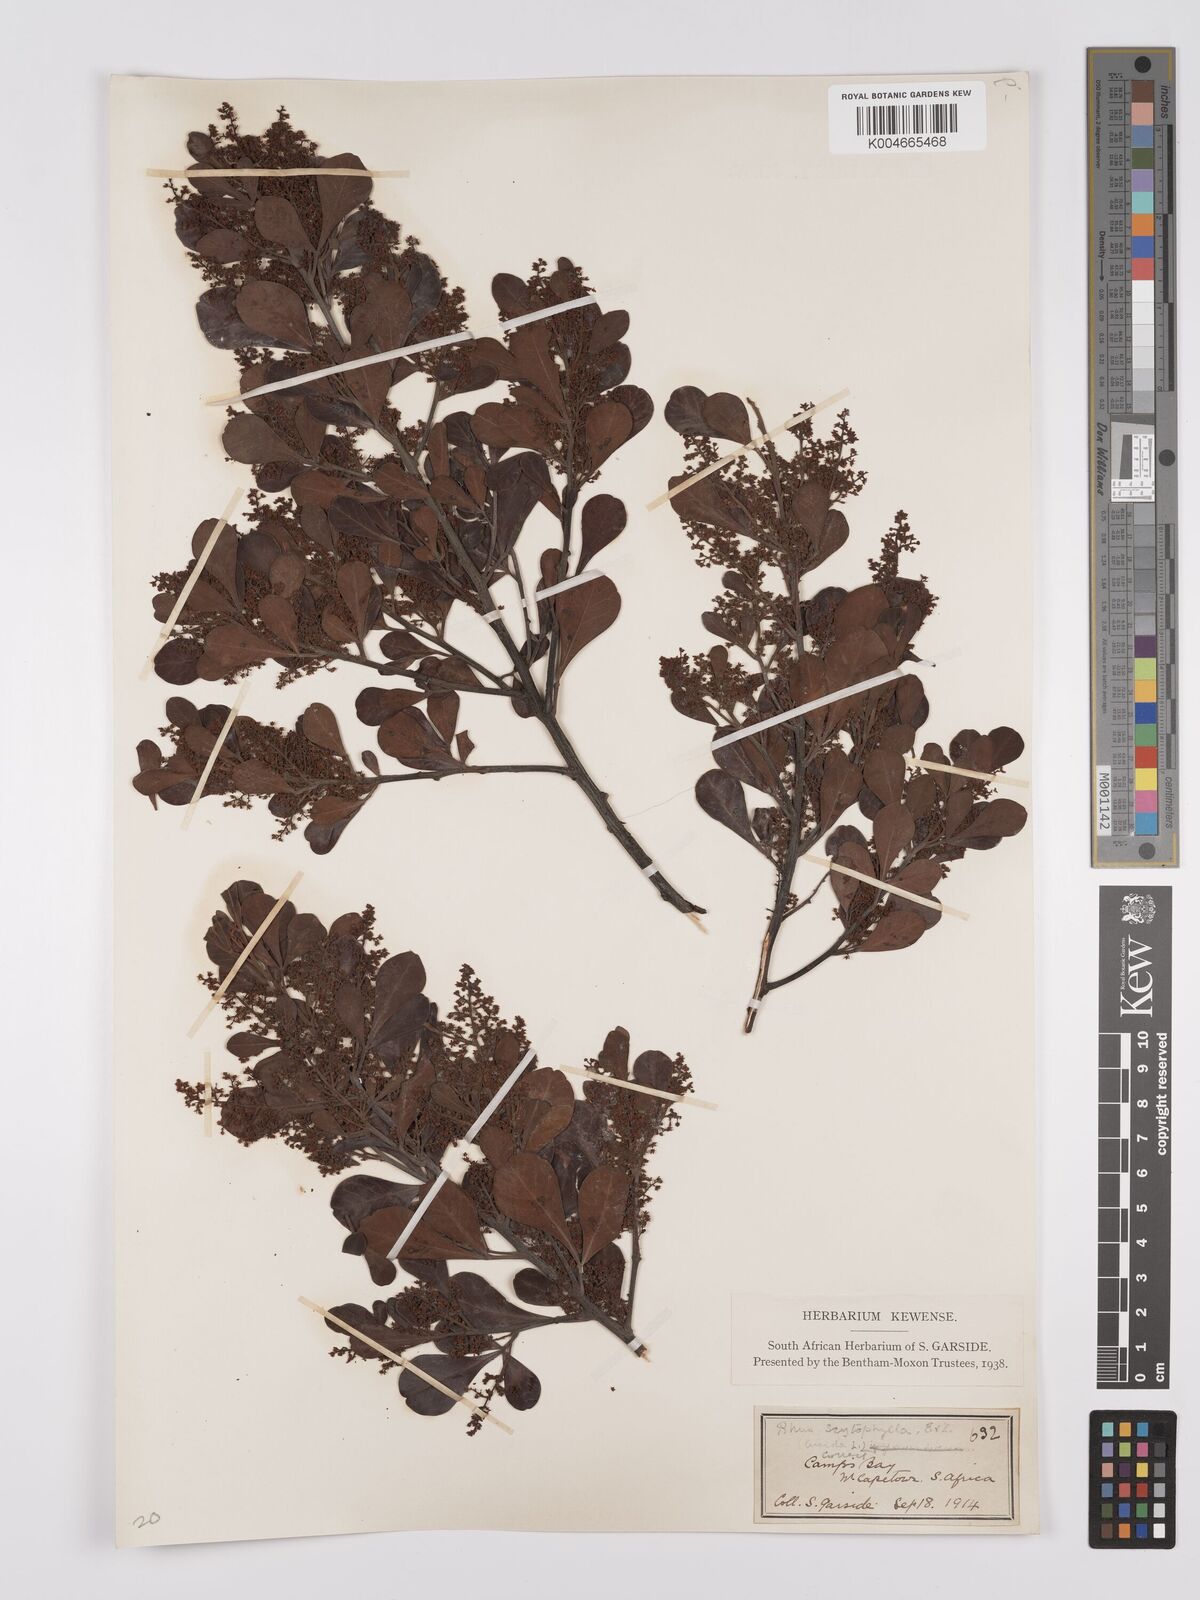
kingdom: Plantae
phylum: Tracheophyta
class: Magnoliopsida
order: Sapindales
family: Anacardiaceae
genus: Searsia
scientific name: Searsia scytophylla
